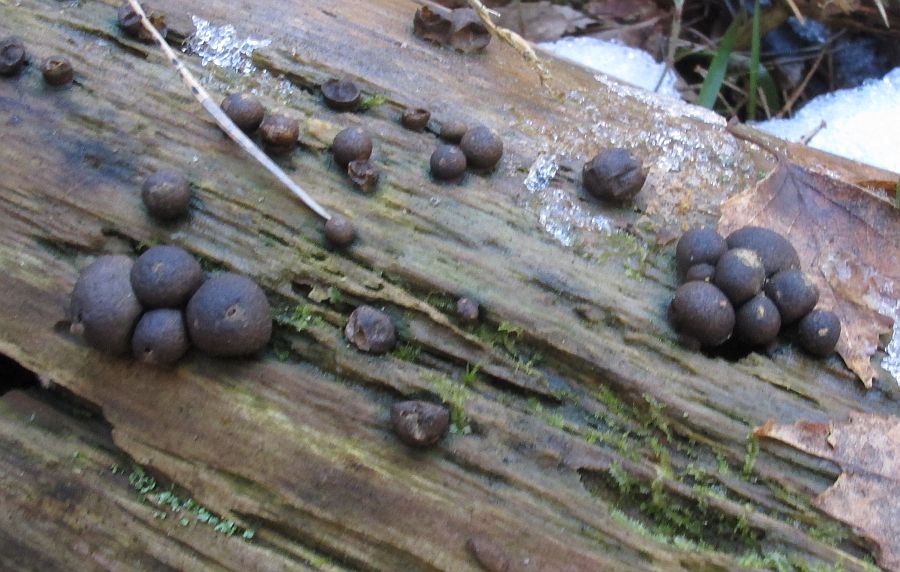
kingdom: Protozoa
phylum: Mycetozoa
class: Myxomycetes
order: Cribrariales
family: Tubiferaceae
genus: Lycogala
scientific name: Lycogala epidendrum
